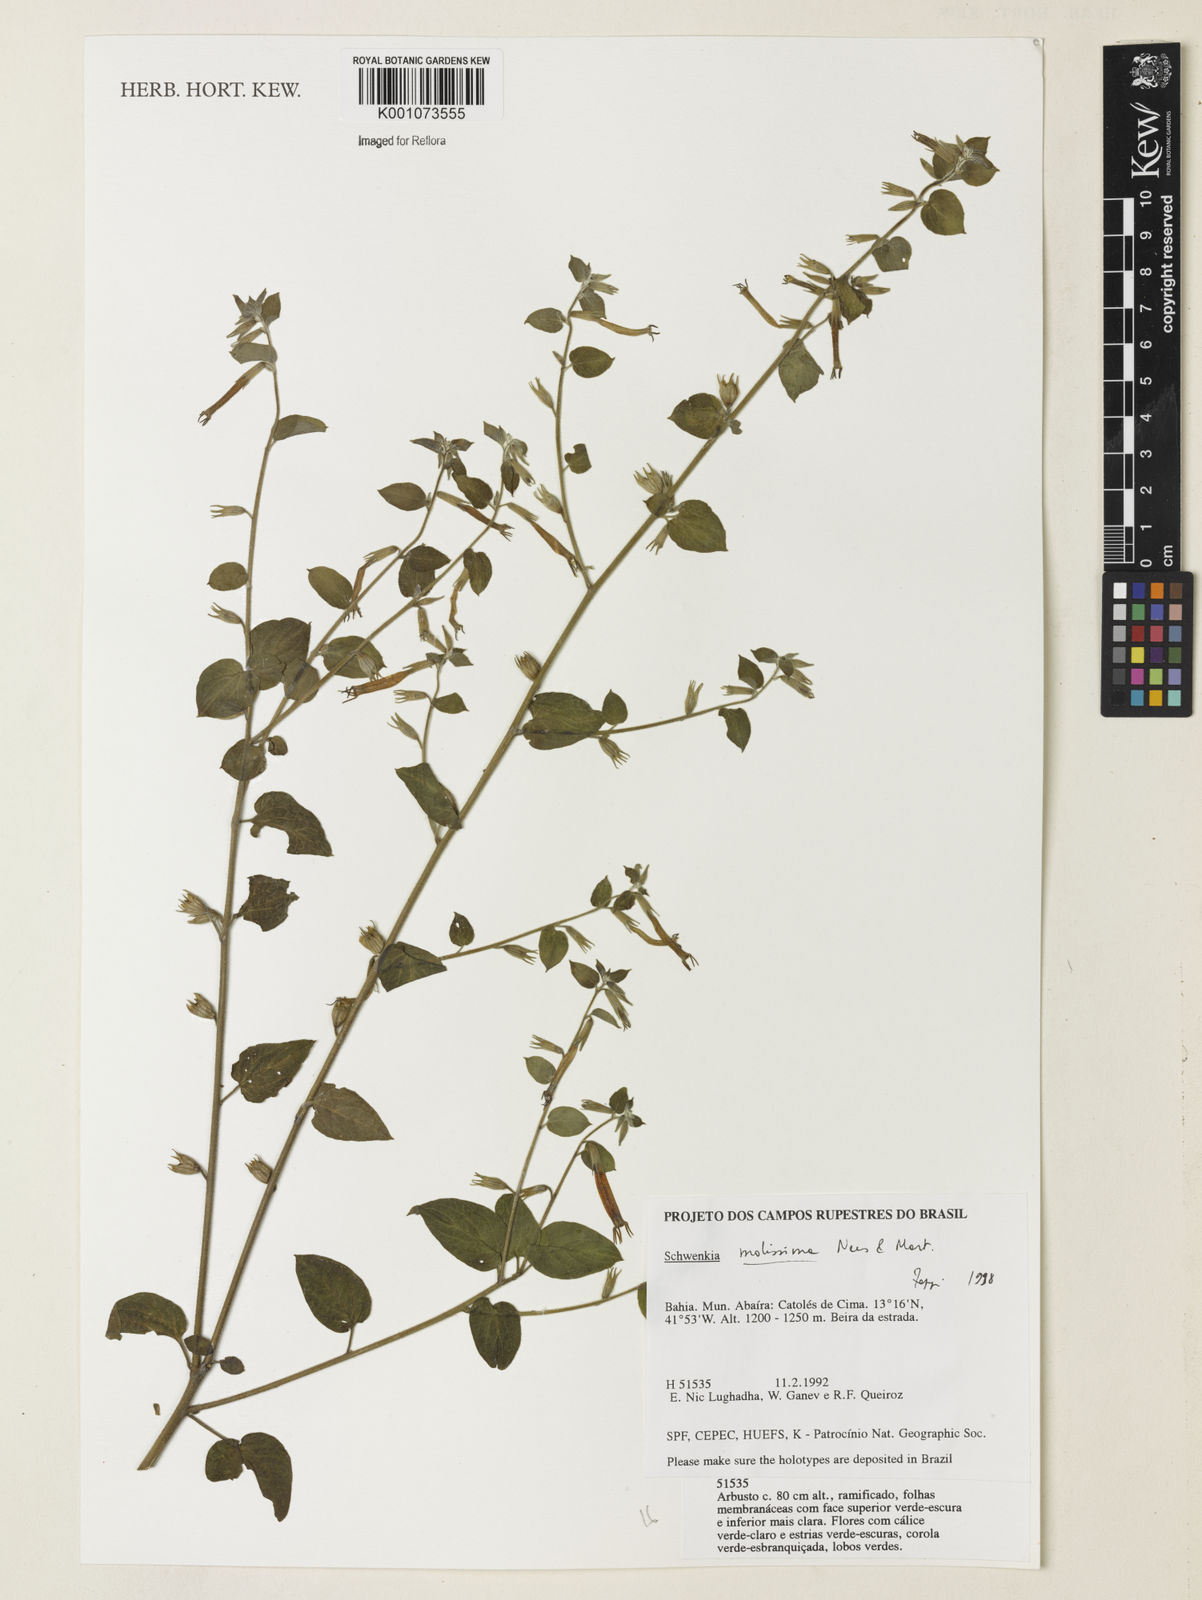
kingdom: Plantae
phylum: Tracheophyta
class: Magnoliopsida
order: Solanales
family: Solanaceae
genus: Schwenckia
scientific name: Schwenckia mollissima
